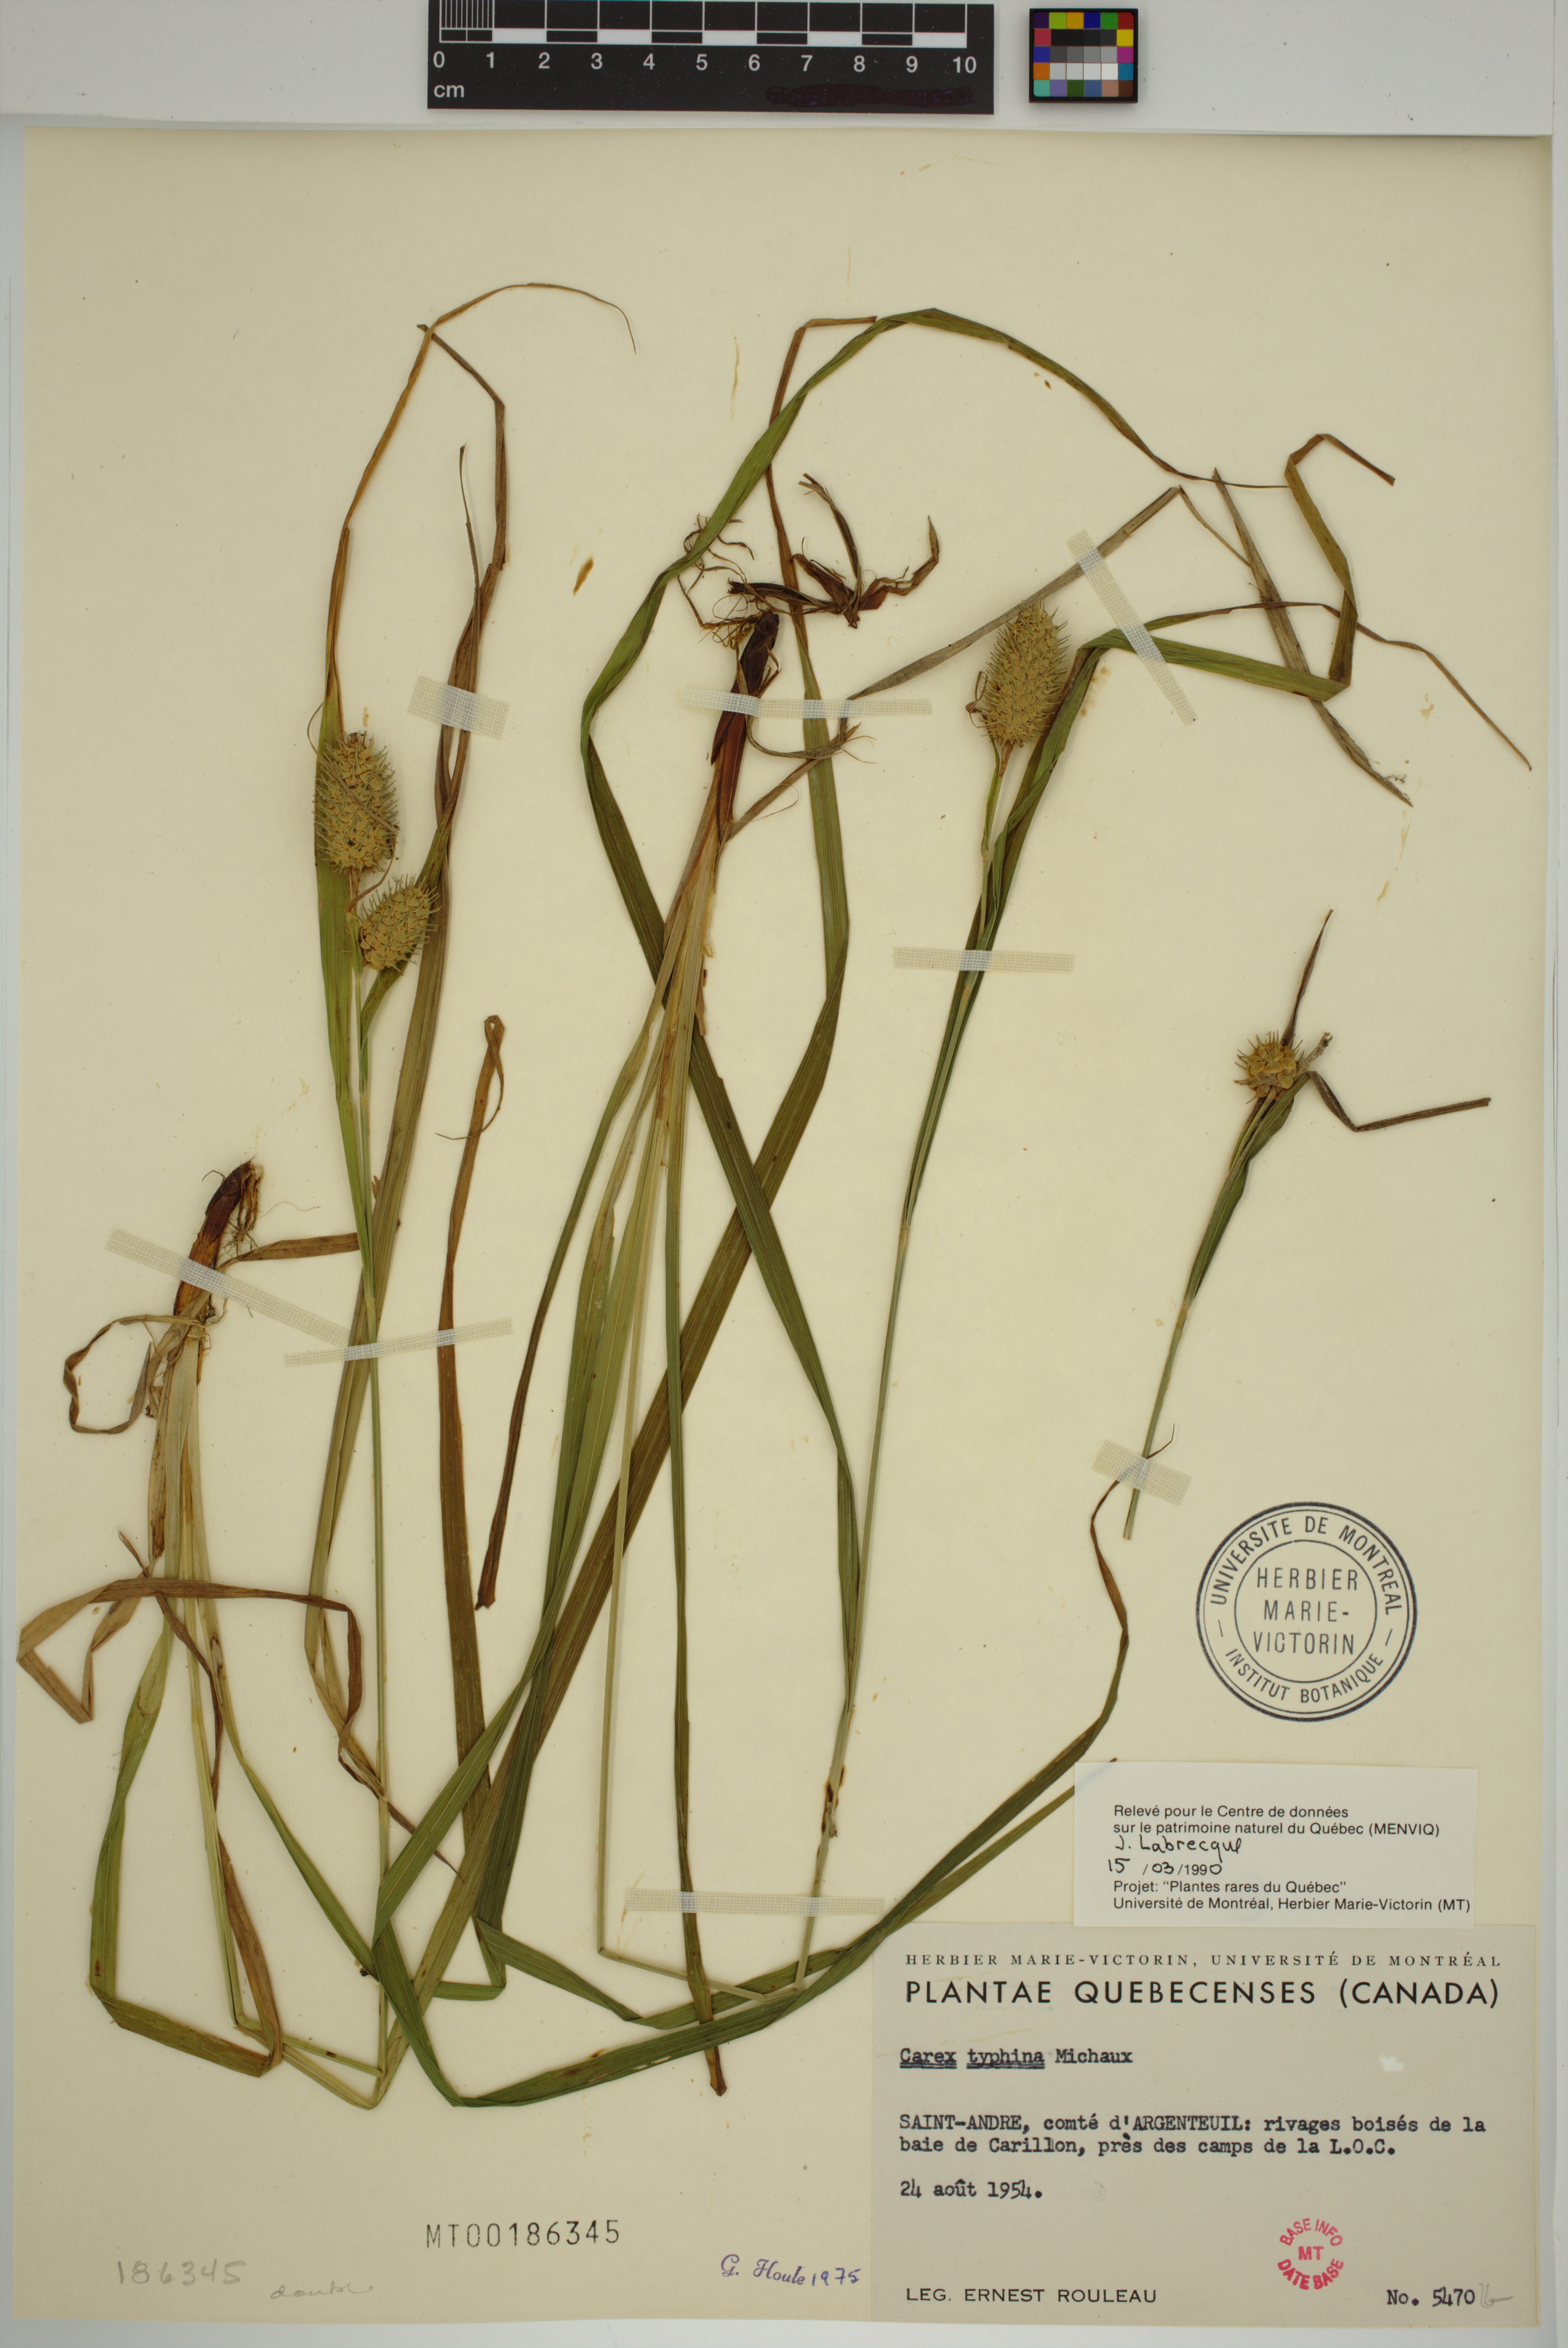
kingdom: Plantae
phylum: Tracheophyta
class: Liliopsida
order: Poales
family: Cyperaceae
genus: Carex
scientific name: Carex typhina
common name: Cattail sedge
